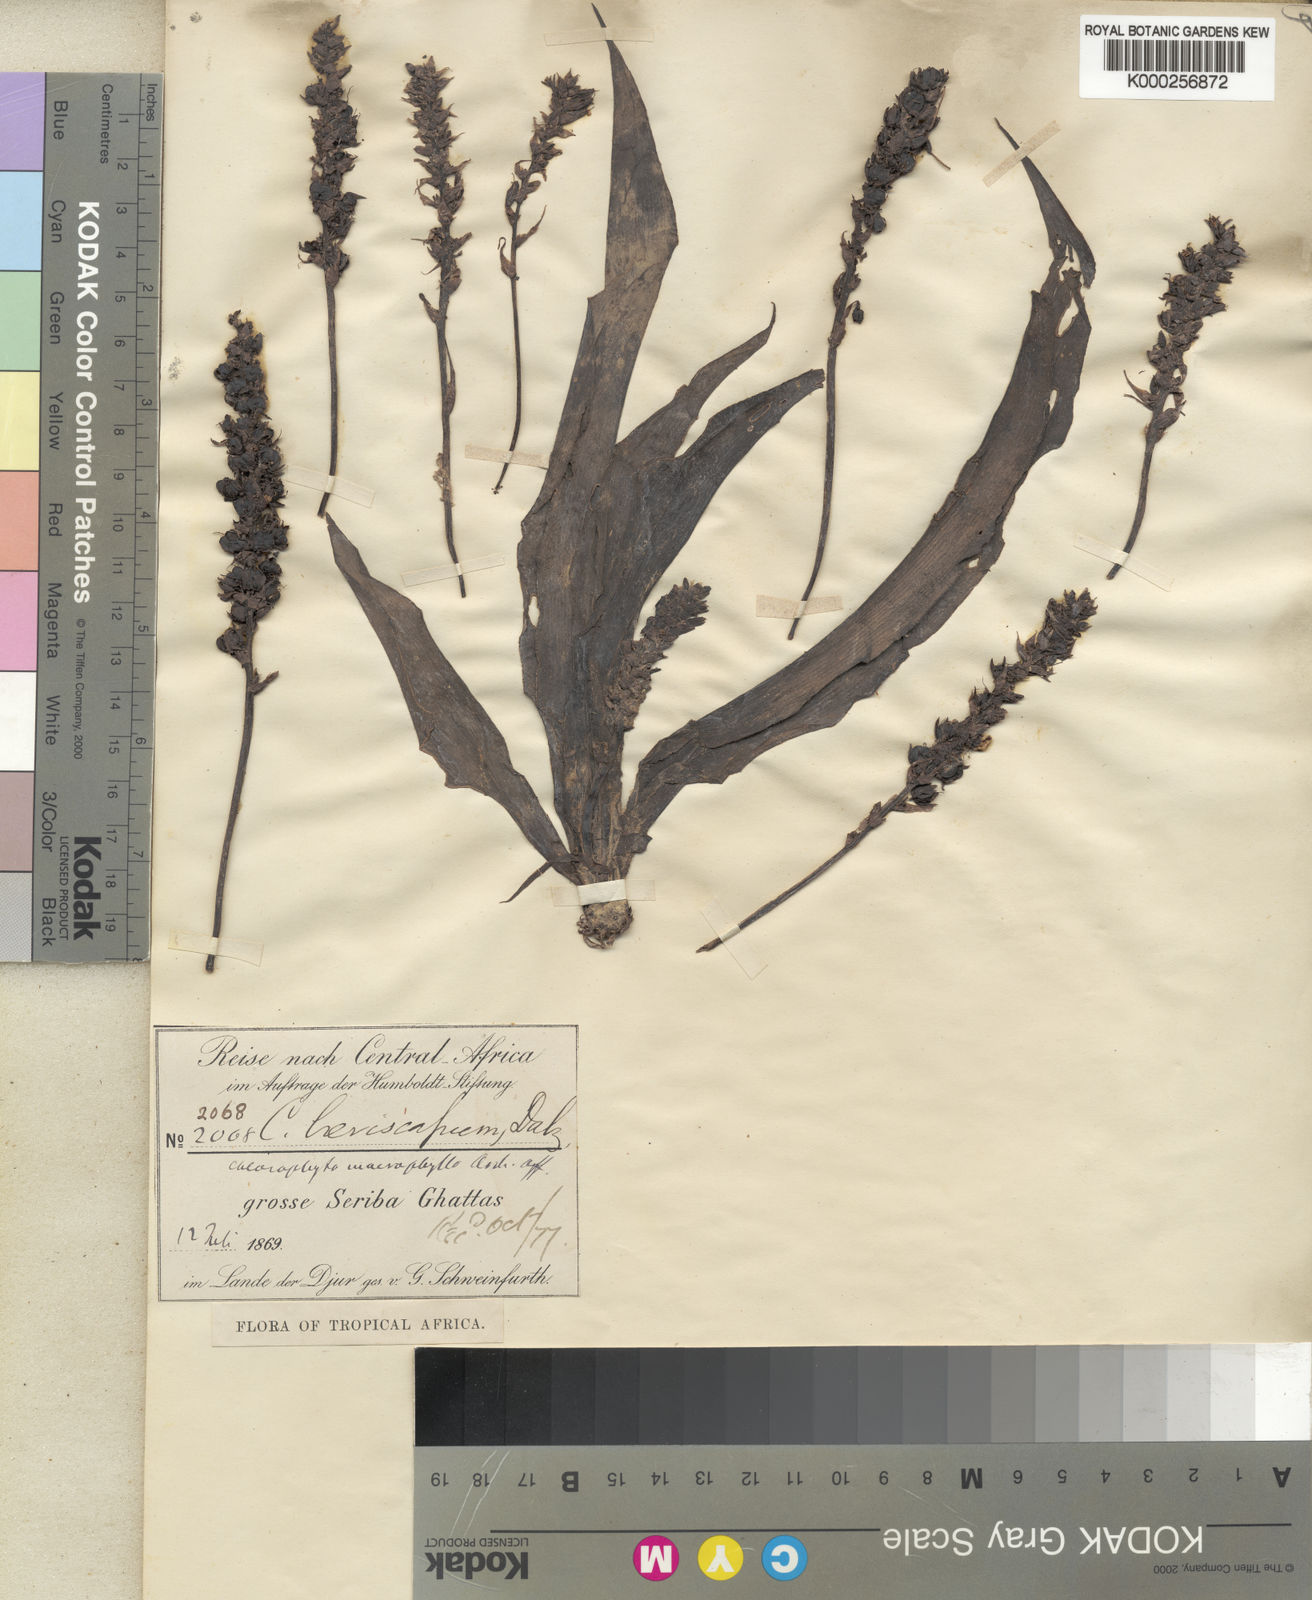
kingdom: Plantae
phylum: Tracheophyta
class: Liliopsida
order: Asparagales
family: Asparagaceae
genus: Chlorophytum
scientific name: Chlorophytum macrophyllum
